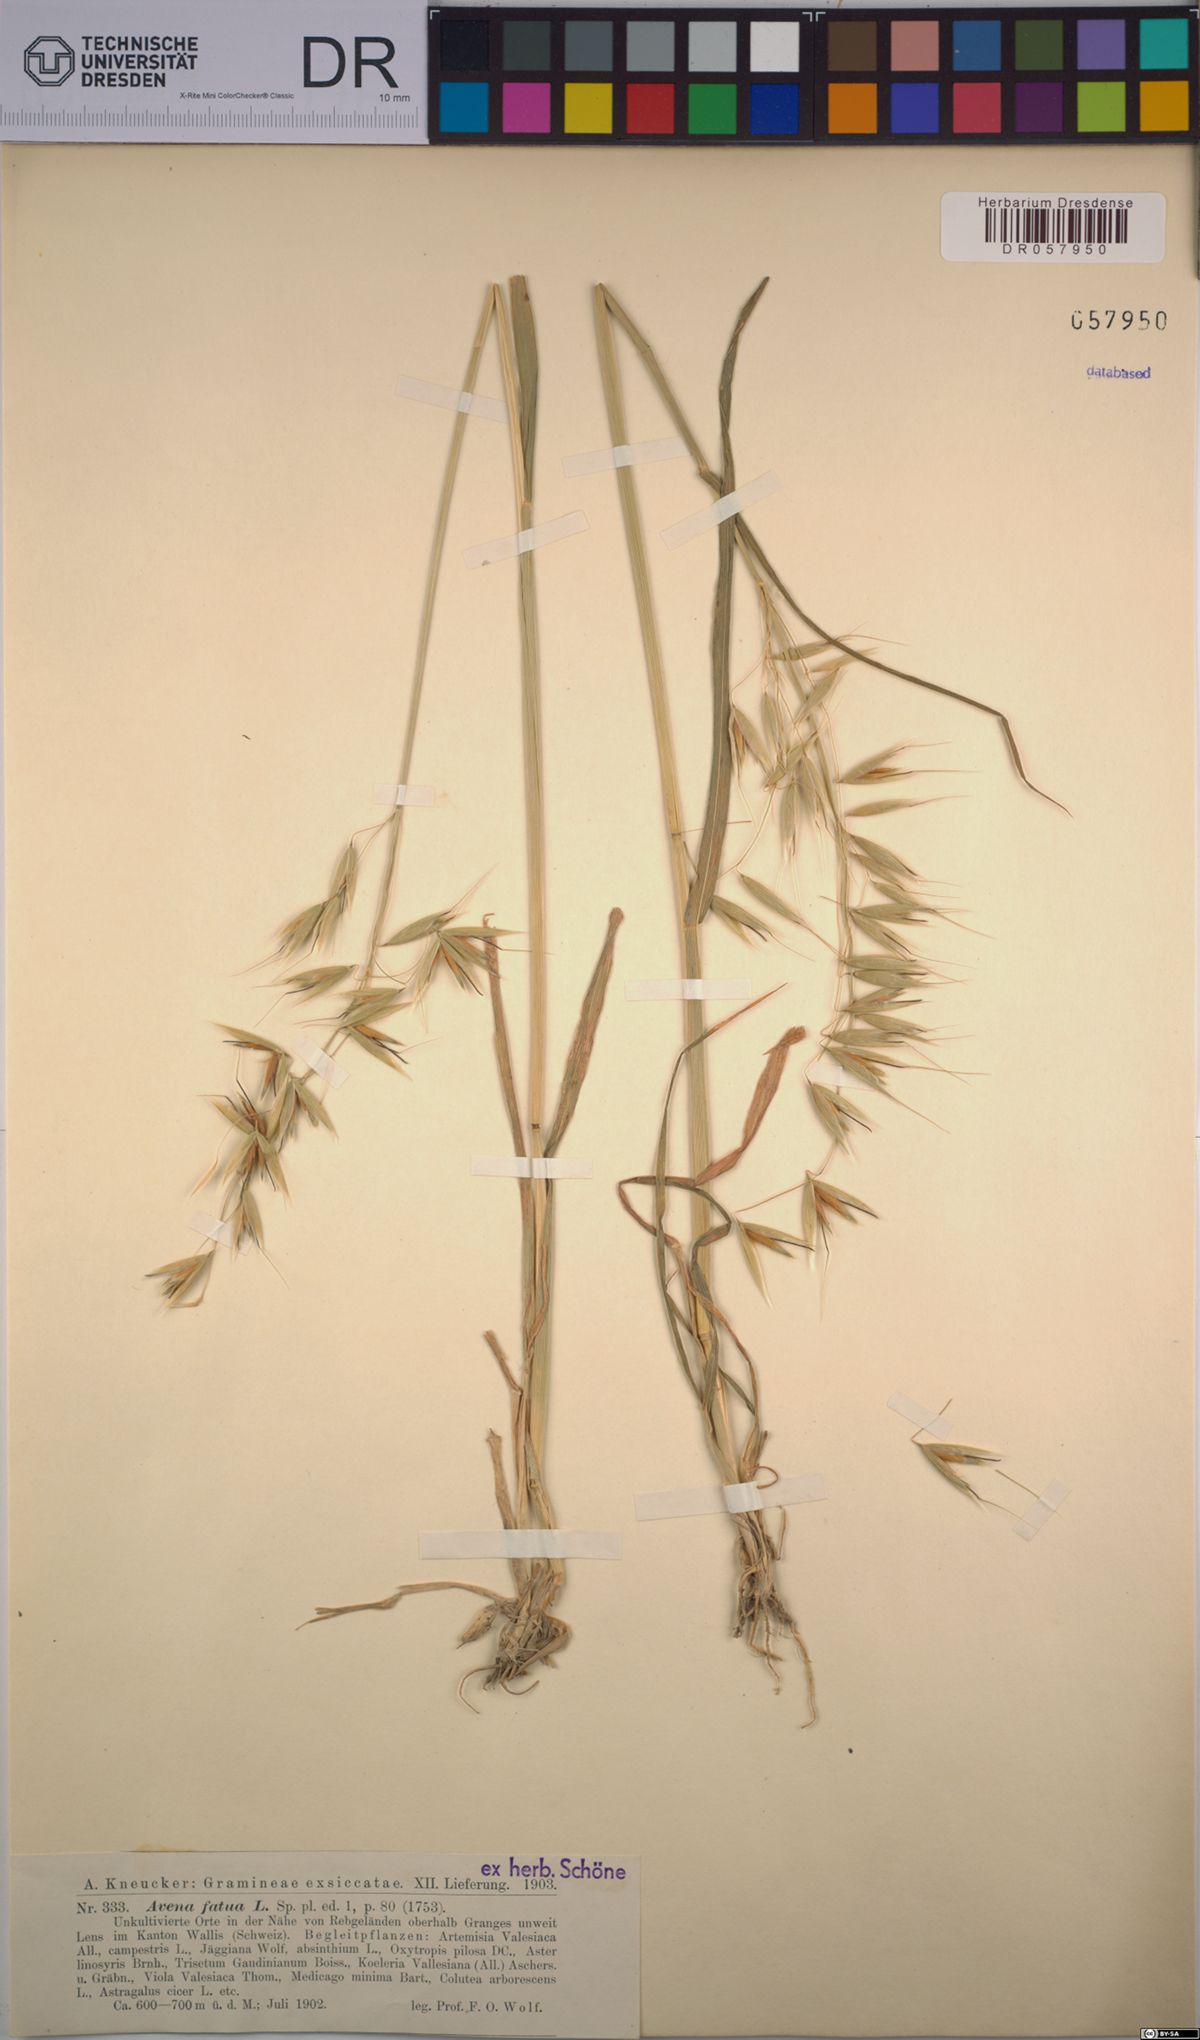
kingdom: Plantae
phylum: Tracheophyta
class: Liliopsida
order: Poales
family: Poaceae
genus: Avena
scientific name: Avena fatua
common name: Wild oat
